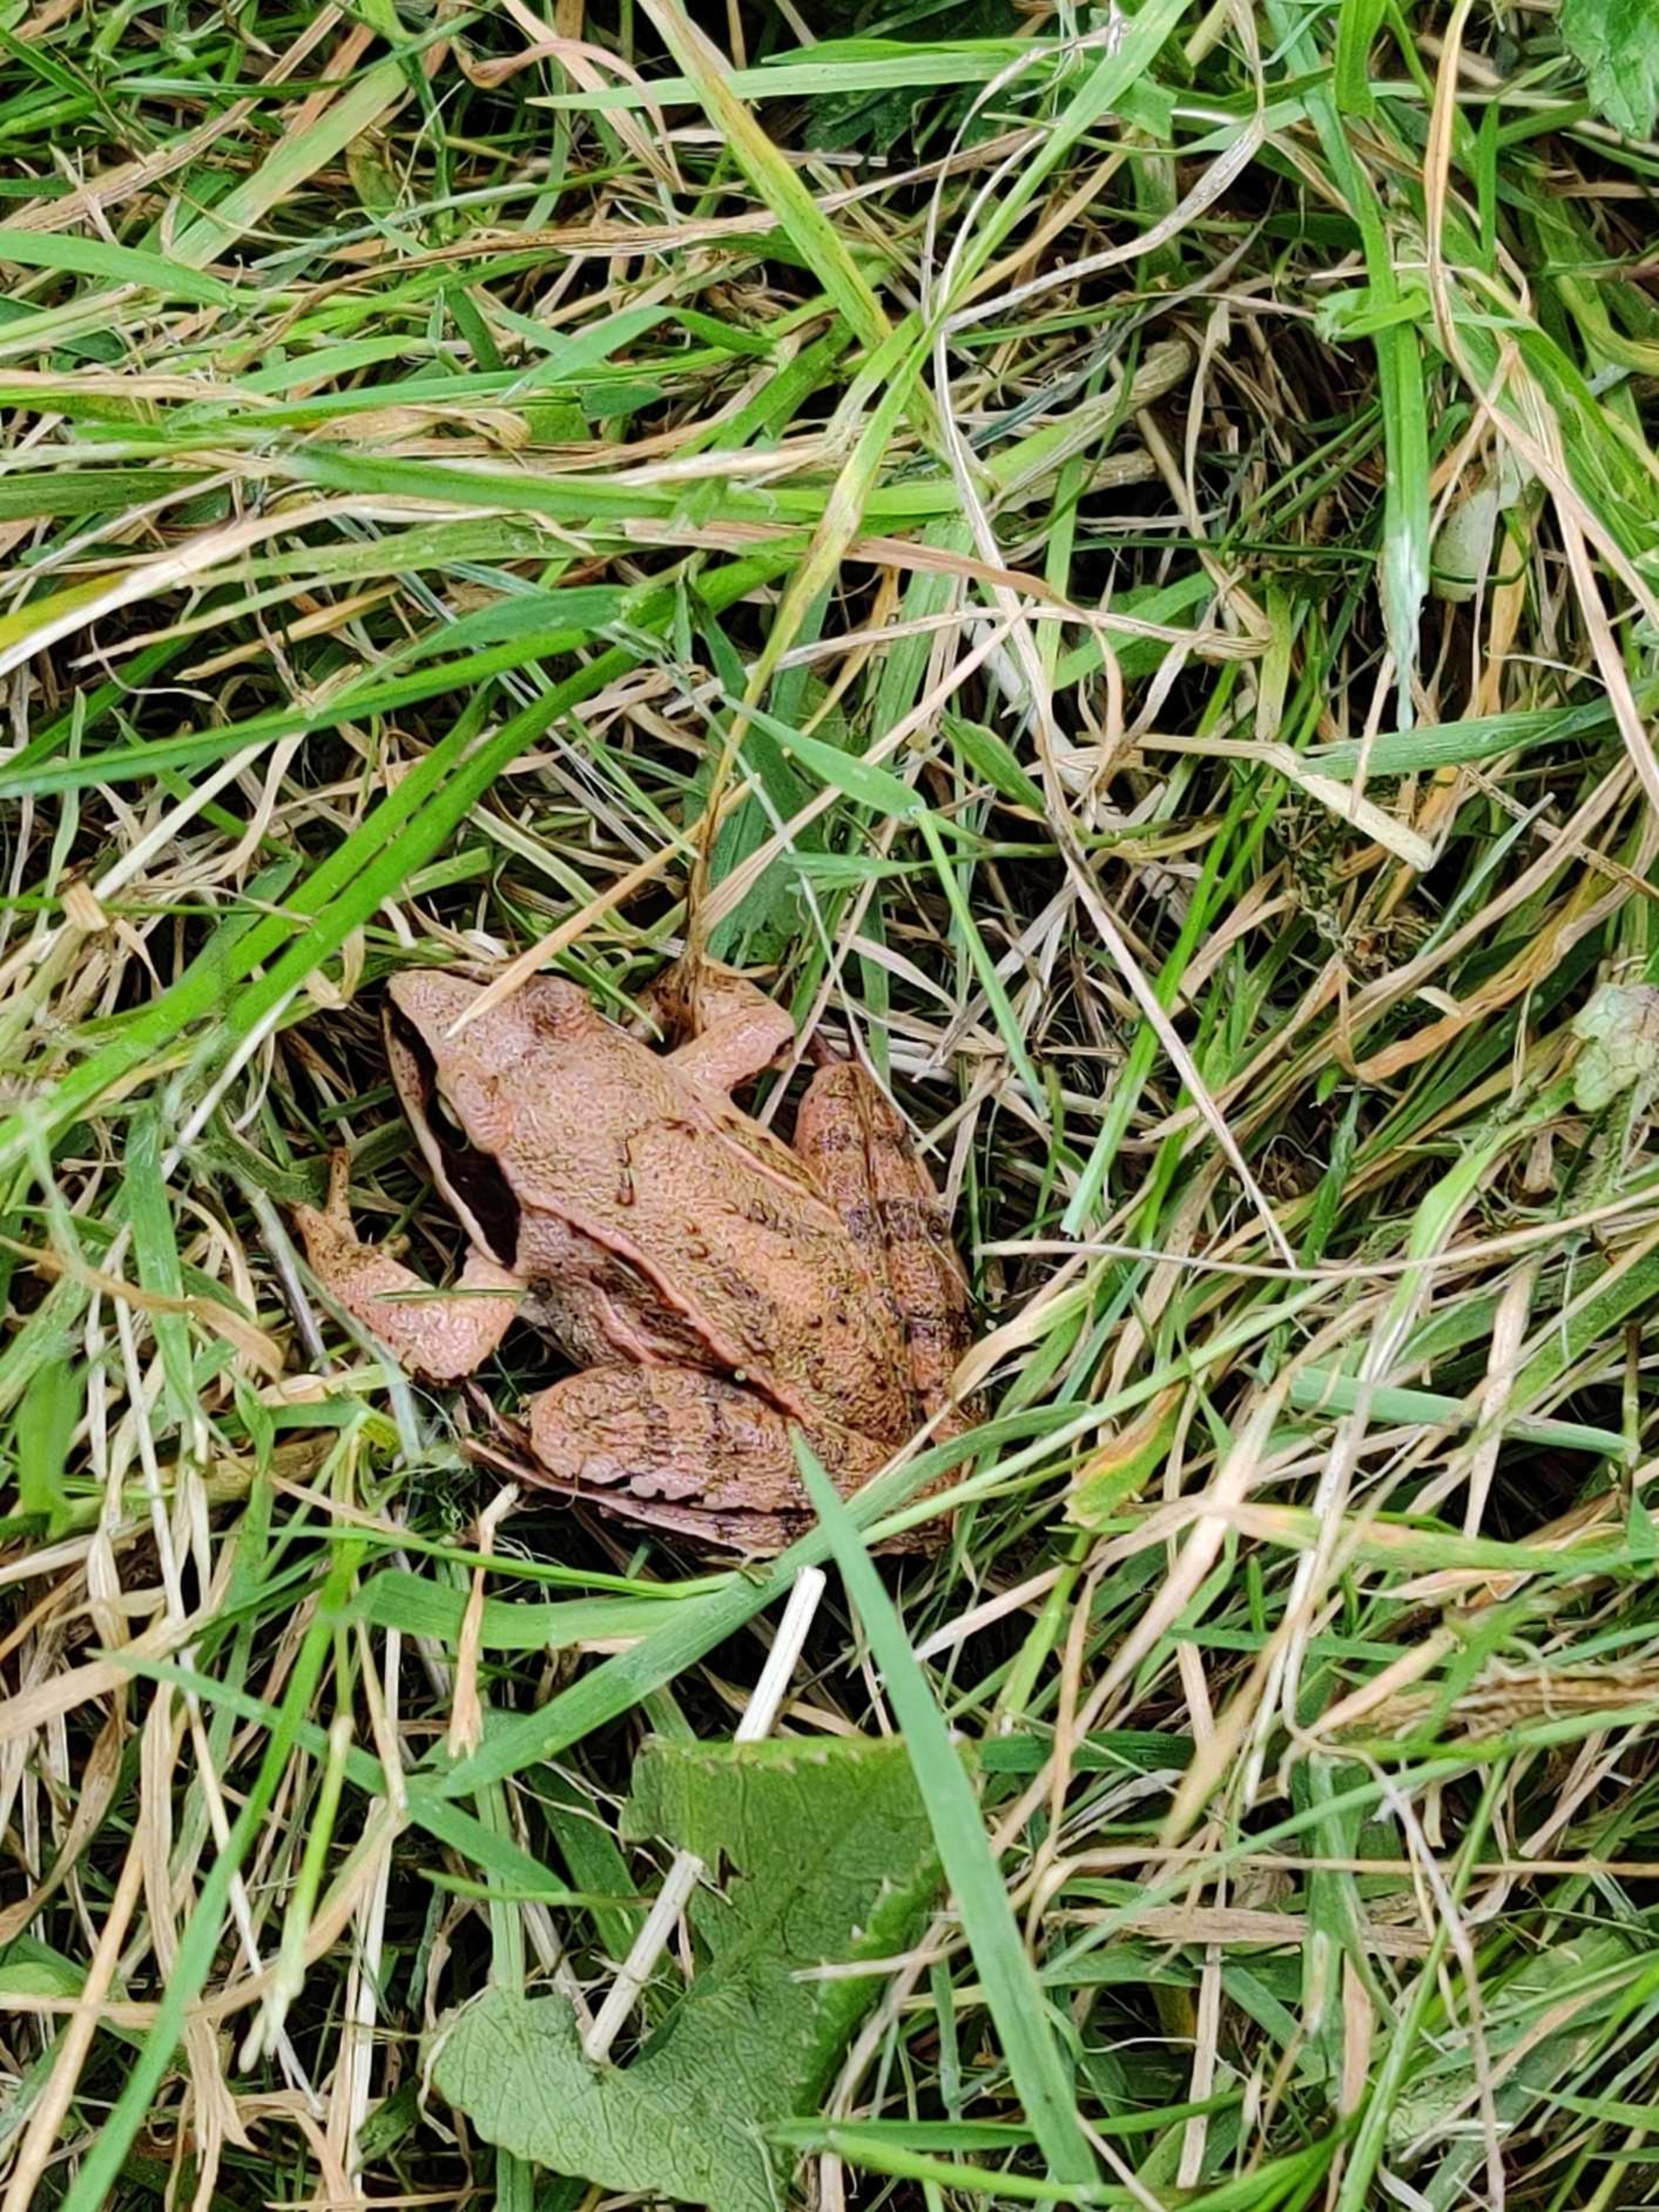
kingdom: Animalia
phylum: Chordata
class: Amphibia
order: Anura
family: Ranidae
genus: Rana
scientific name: Rana dalmatina
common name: Springfrø
